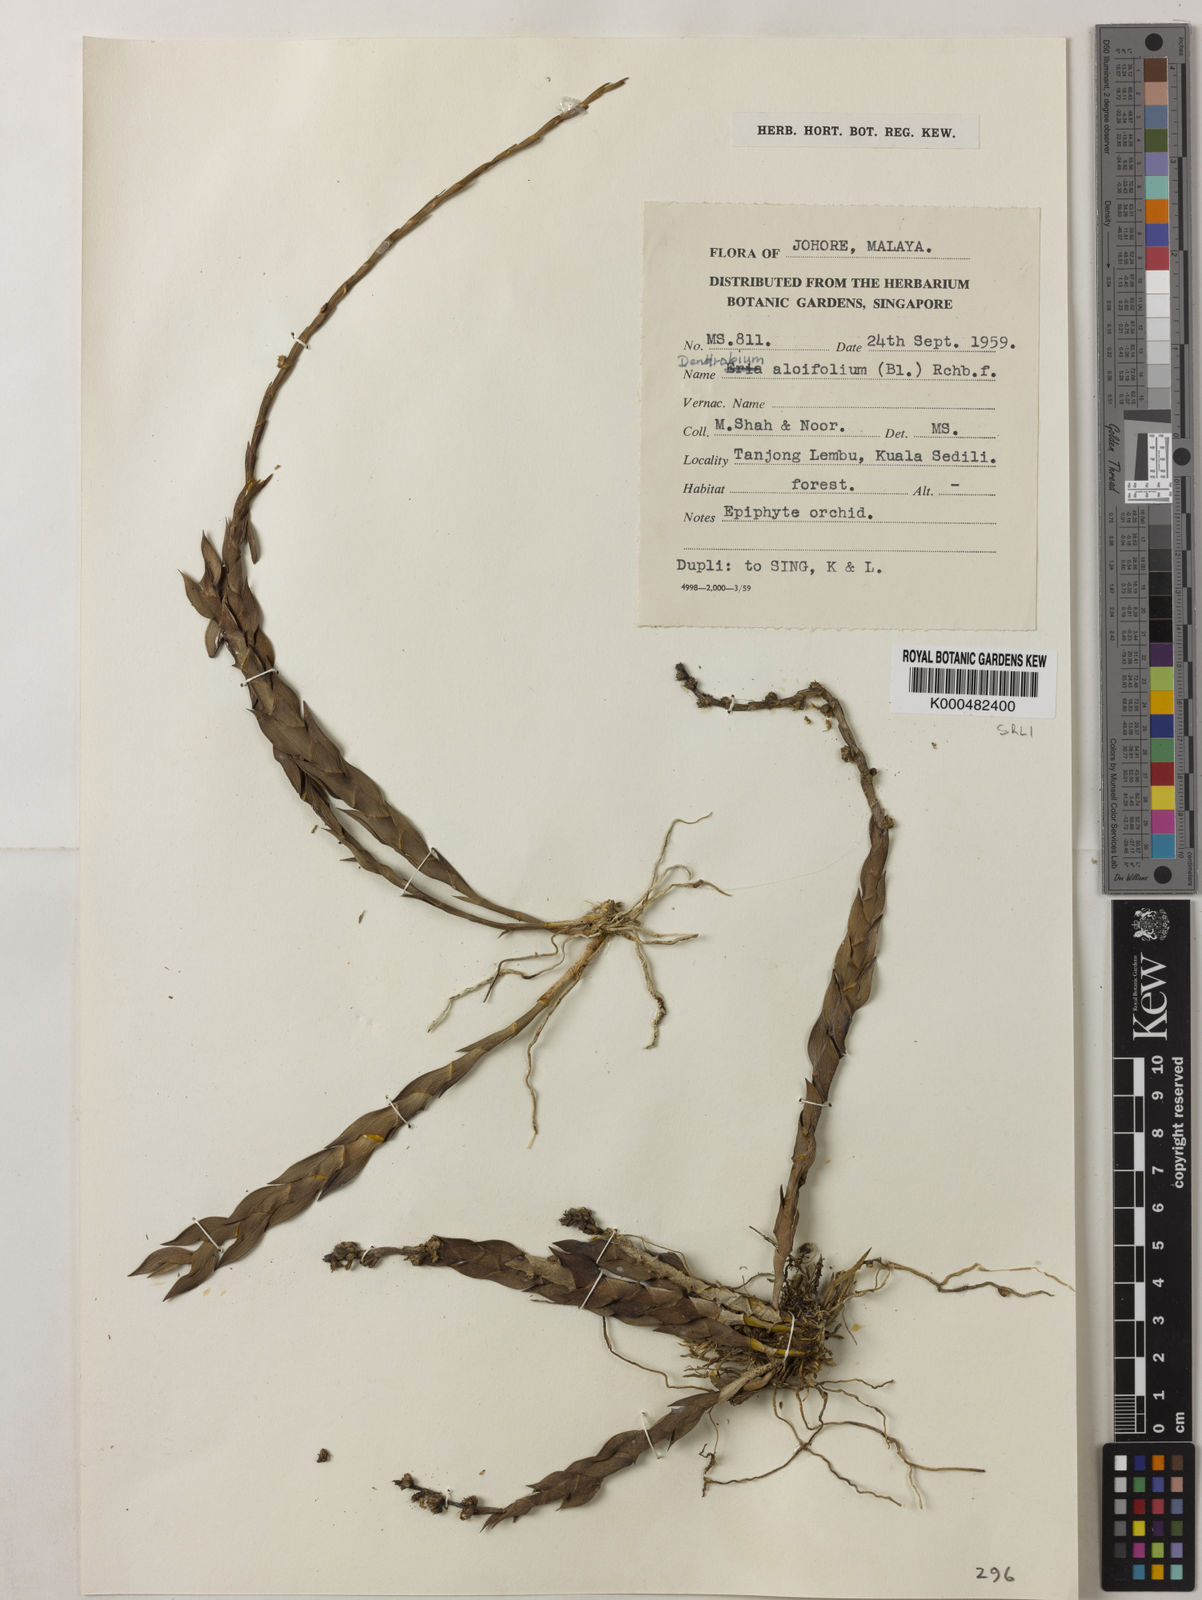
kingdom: Plantae
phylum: Tracheophyta
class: Liliopsida
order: Asparagales
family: Orchidaceae
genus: Dendrobium
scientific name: Dendrobium aloifolium
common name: Aloe-like dendrobium
